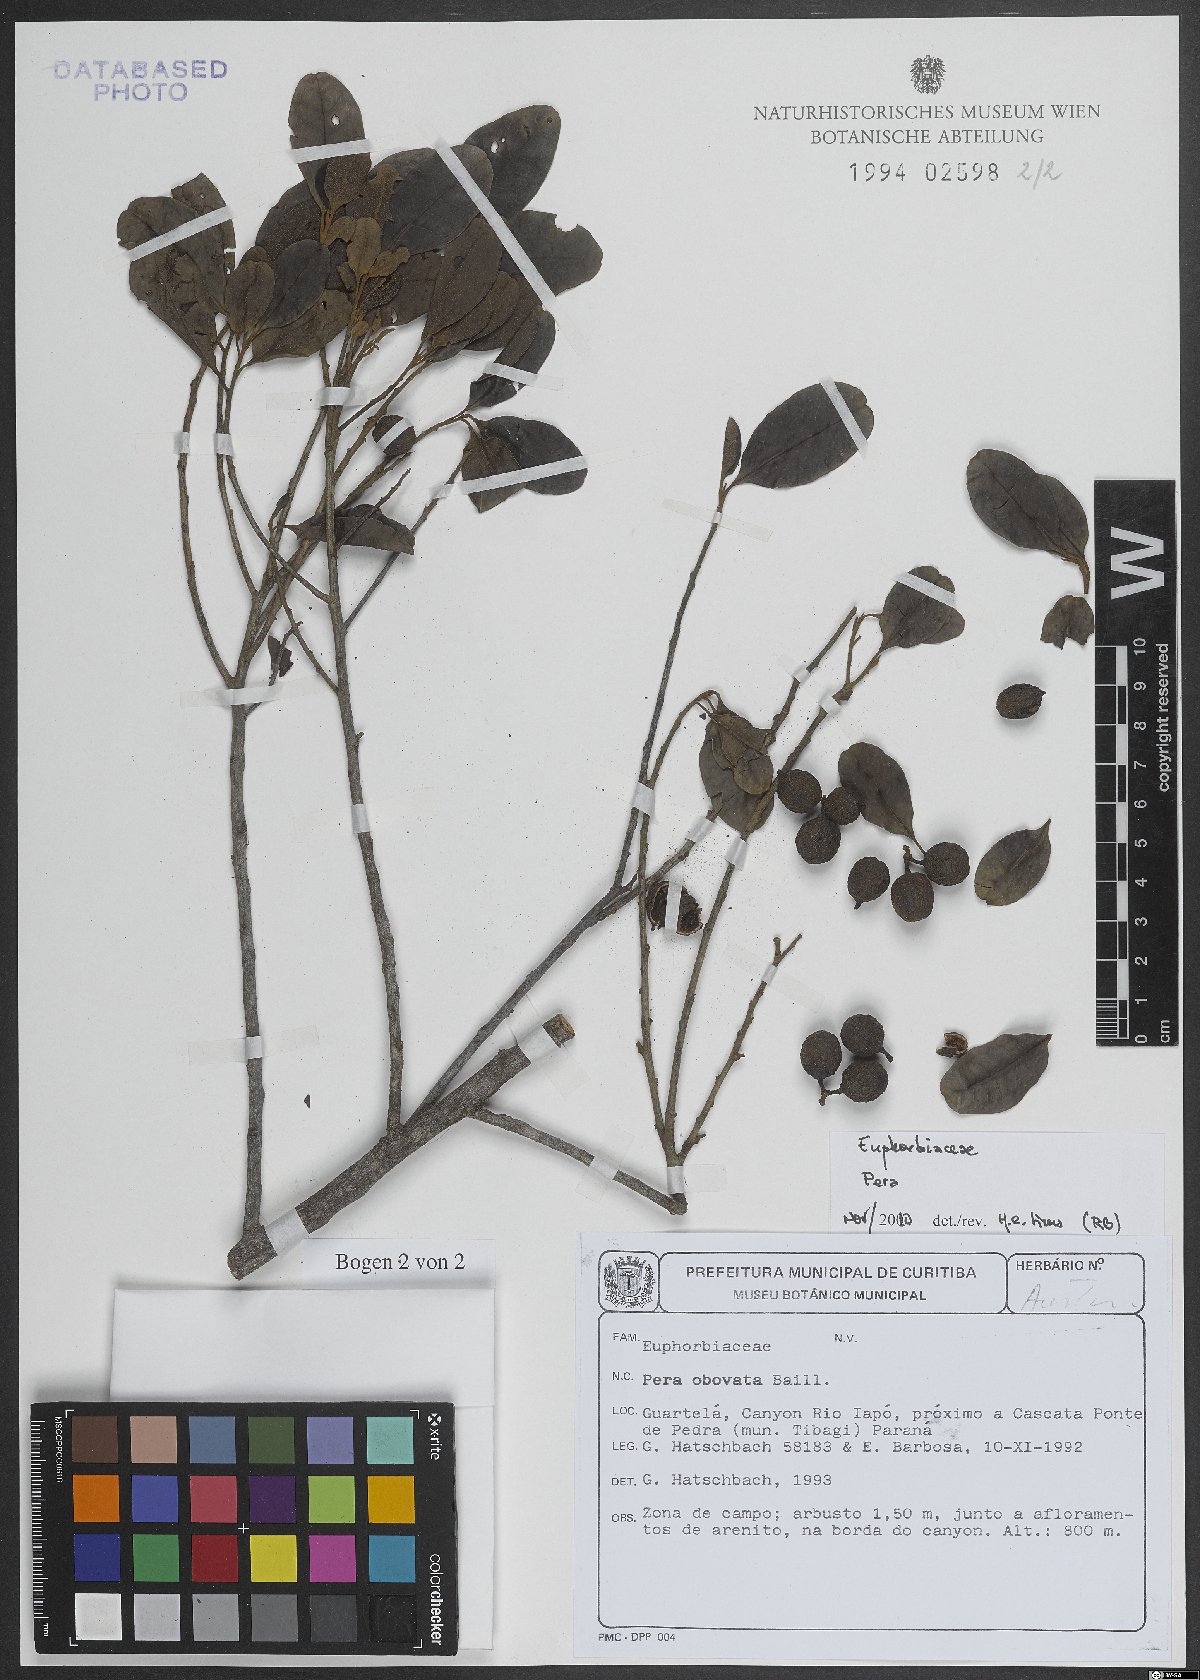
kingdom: Plantae
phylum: Tracheophyta
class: Magnoliopsida
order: Malpighiales
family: Peraceae
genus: Pera
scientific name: Pera
